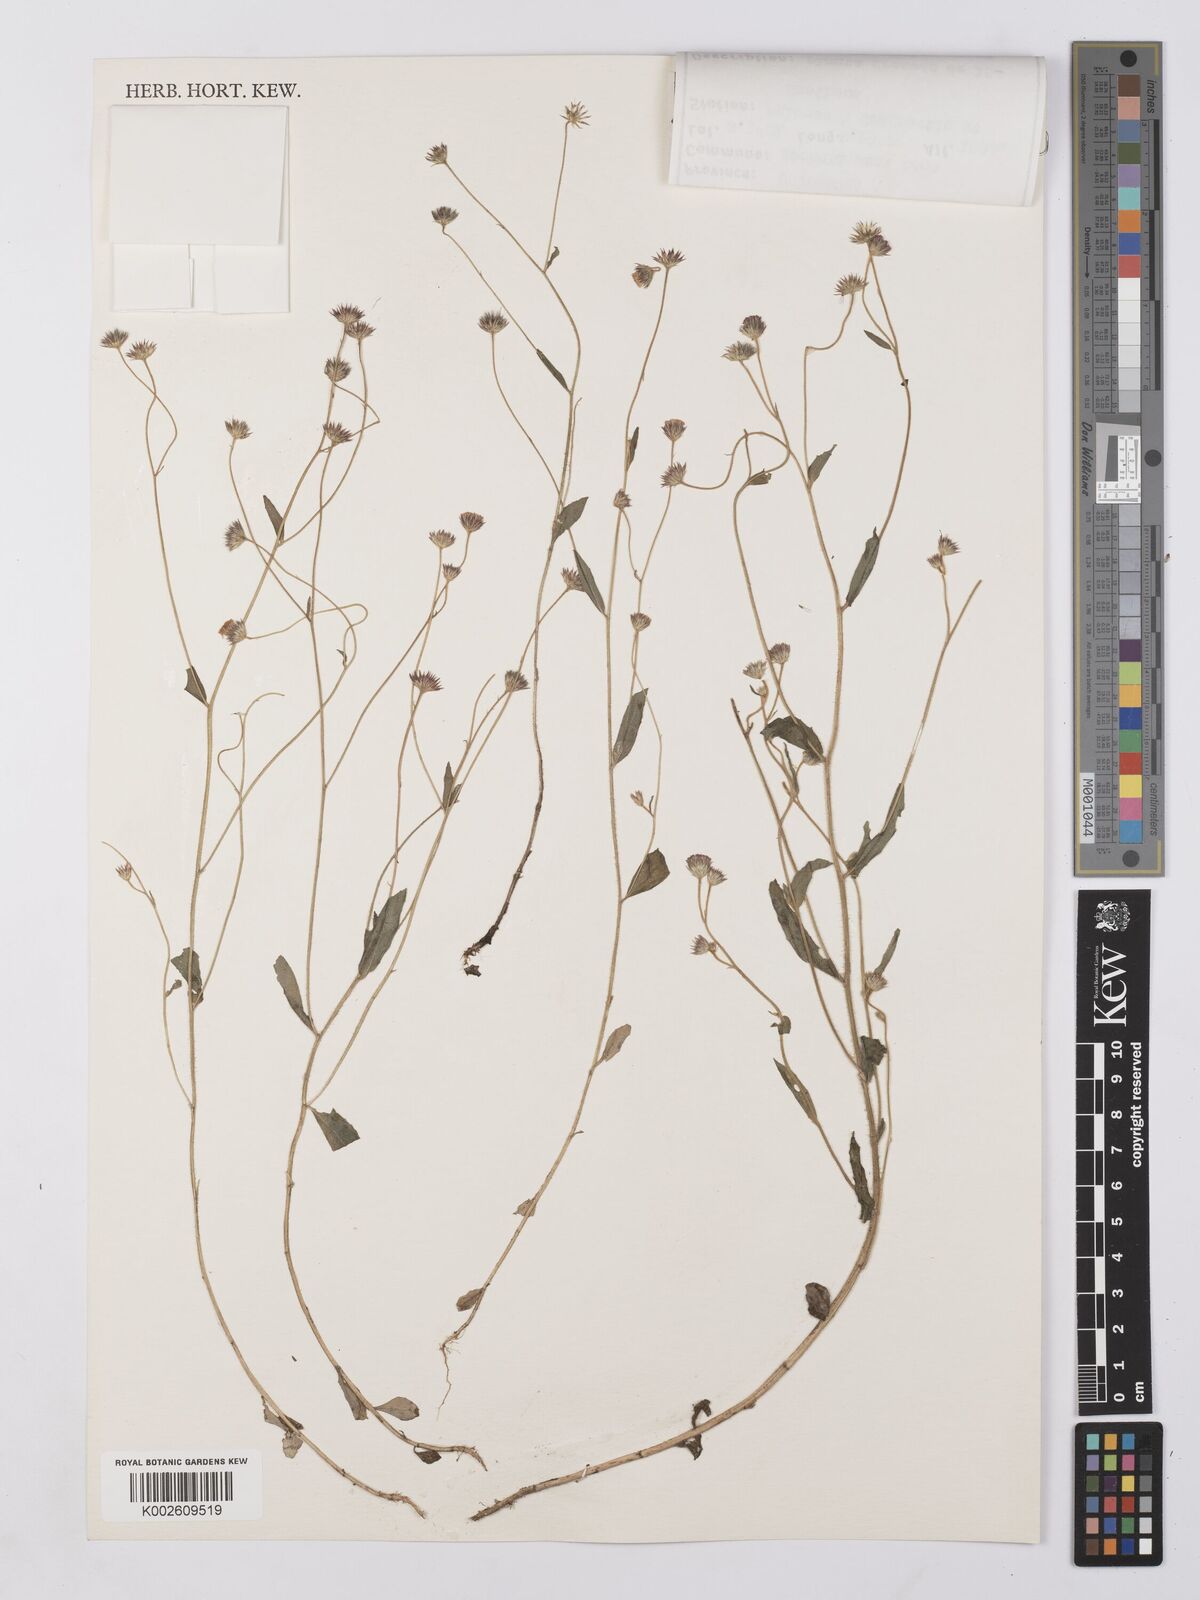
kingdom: Plantae
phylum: Tracheophyta
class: Magnoliopsida
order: Asterales
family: Asteraceae
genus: Vernonia
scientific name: Vernonia
